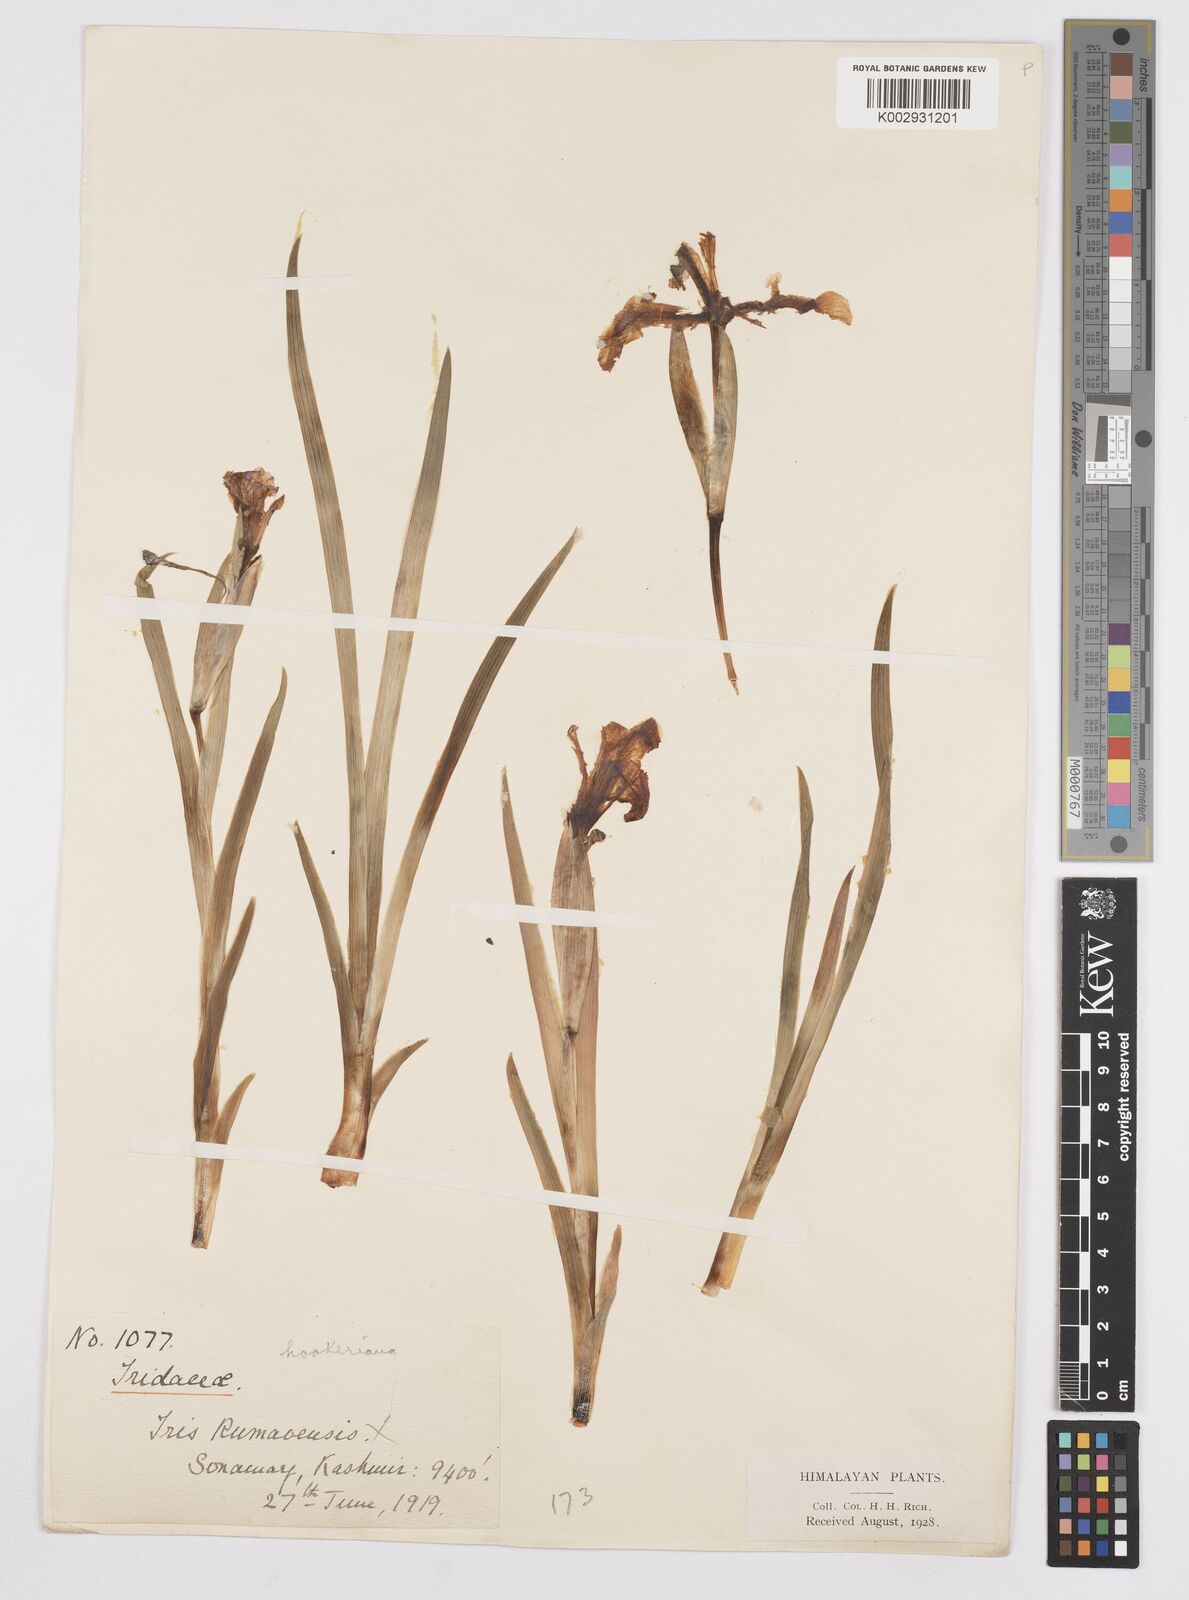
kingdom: Plantae
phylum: Tracheophyta
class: Liliopsida
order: Asparagales
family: Iridaceae
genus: Iris
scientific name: Iris hookeriana
